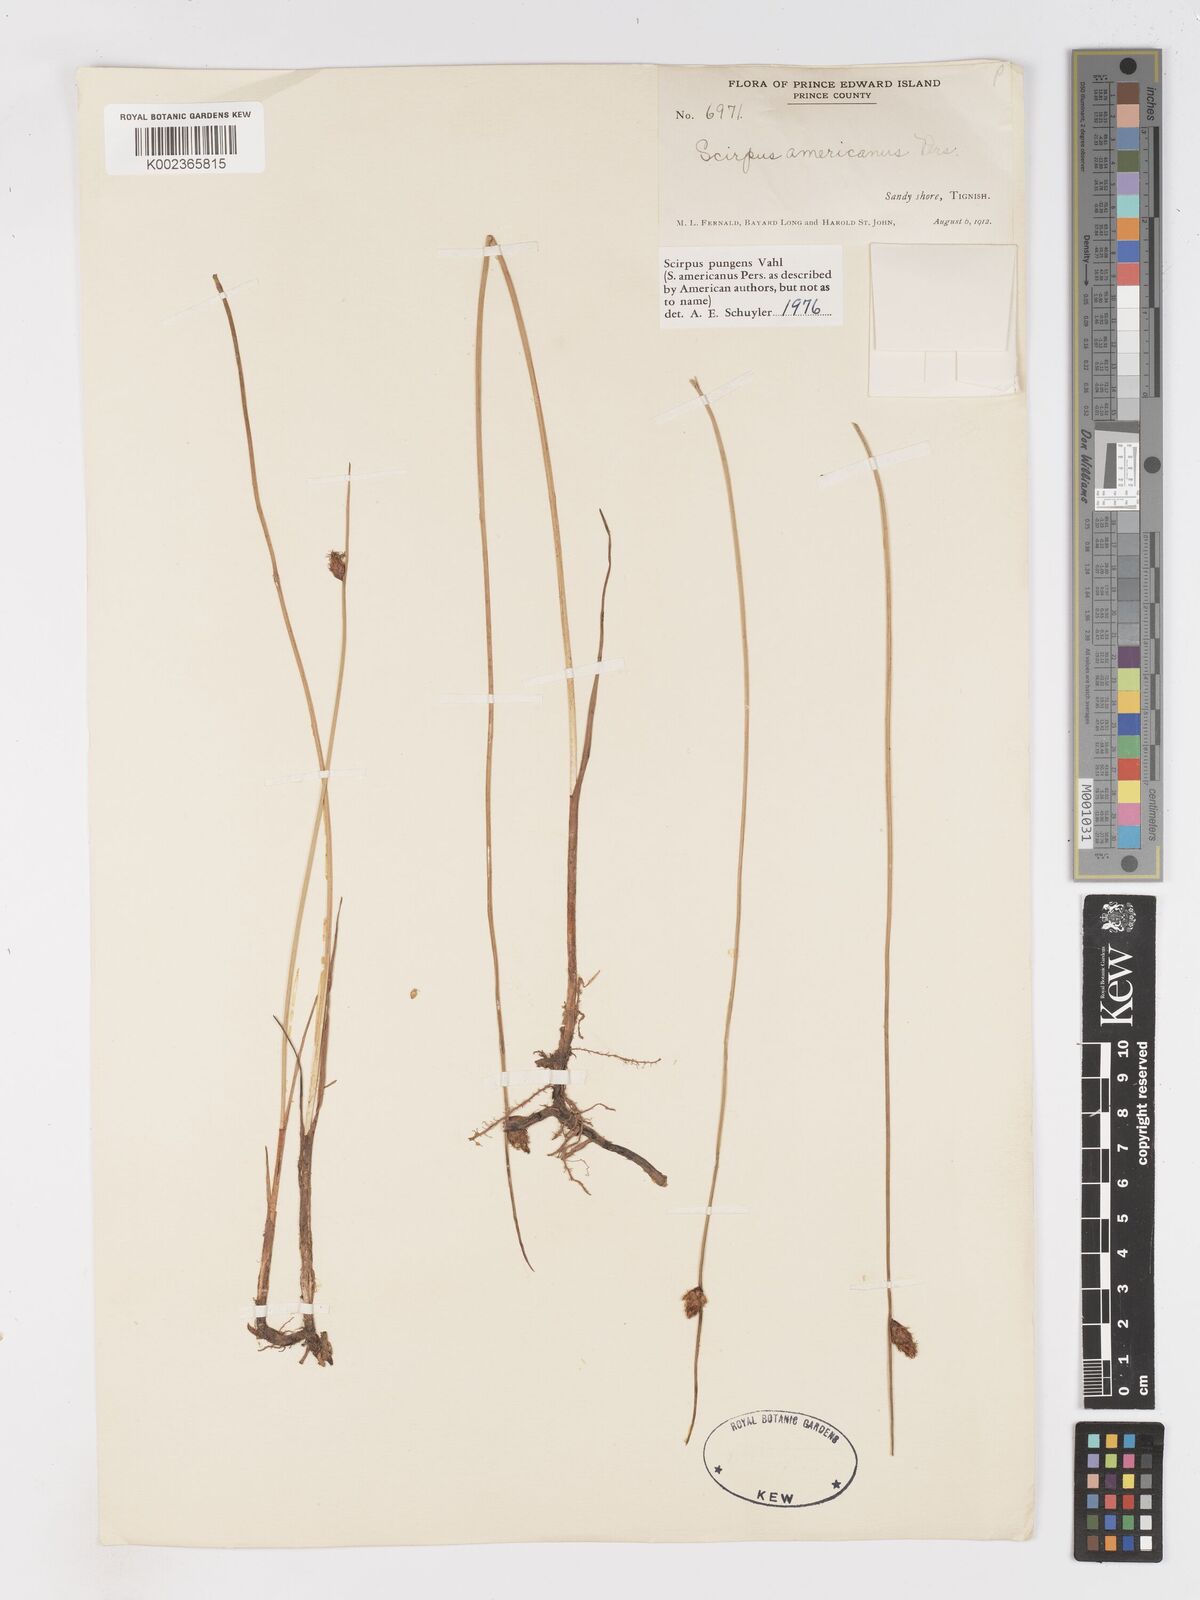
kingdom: Plantae
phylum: Tracheophyta
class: Liliopsida
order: Poales
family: Cyperaceae
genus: Schoenoplectus
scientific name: Schoenoplectus pungens
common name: Sharp club-rush
